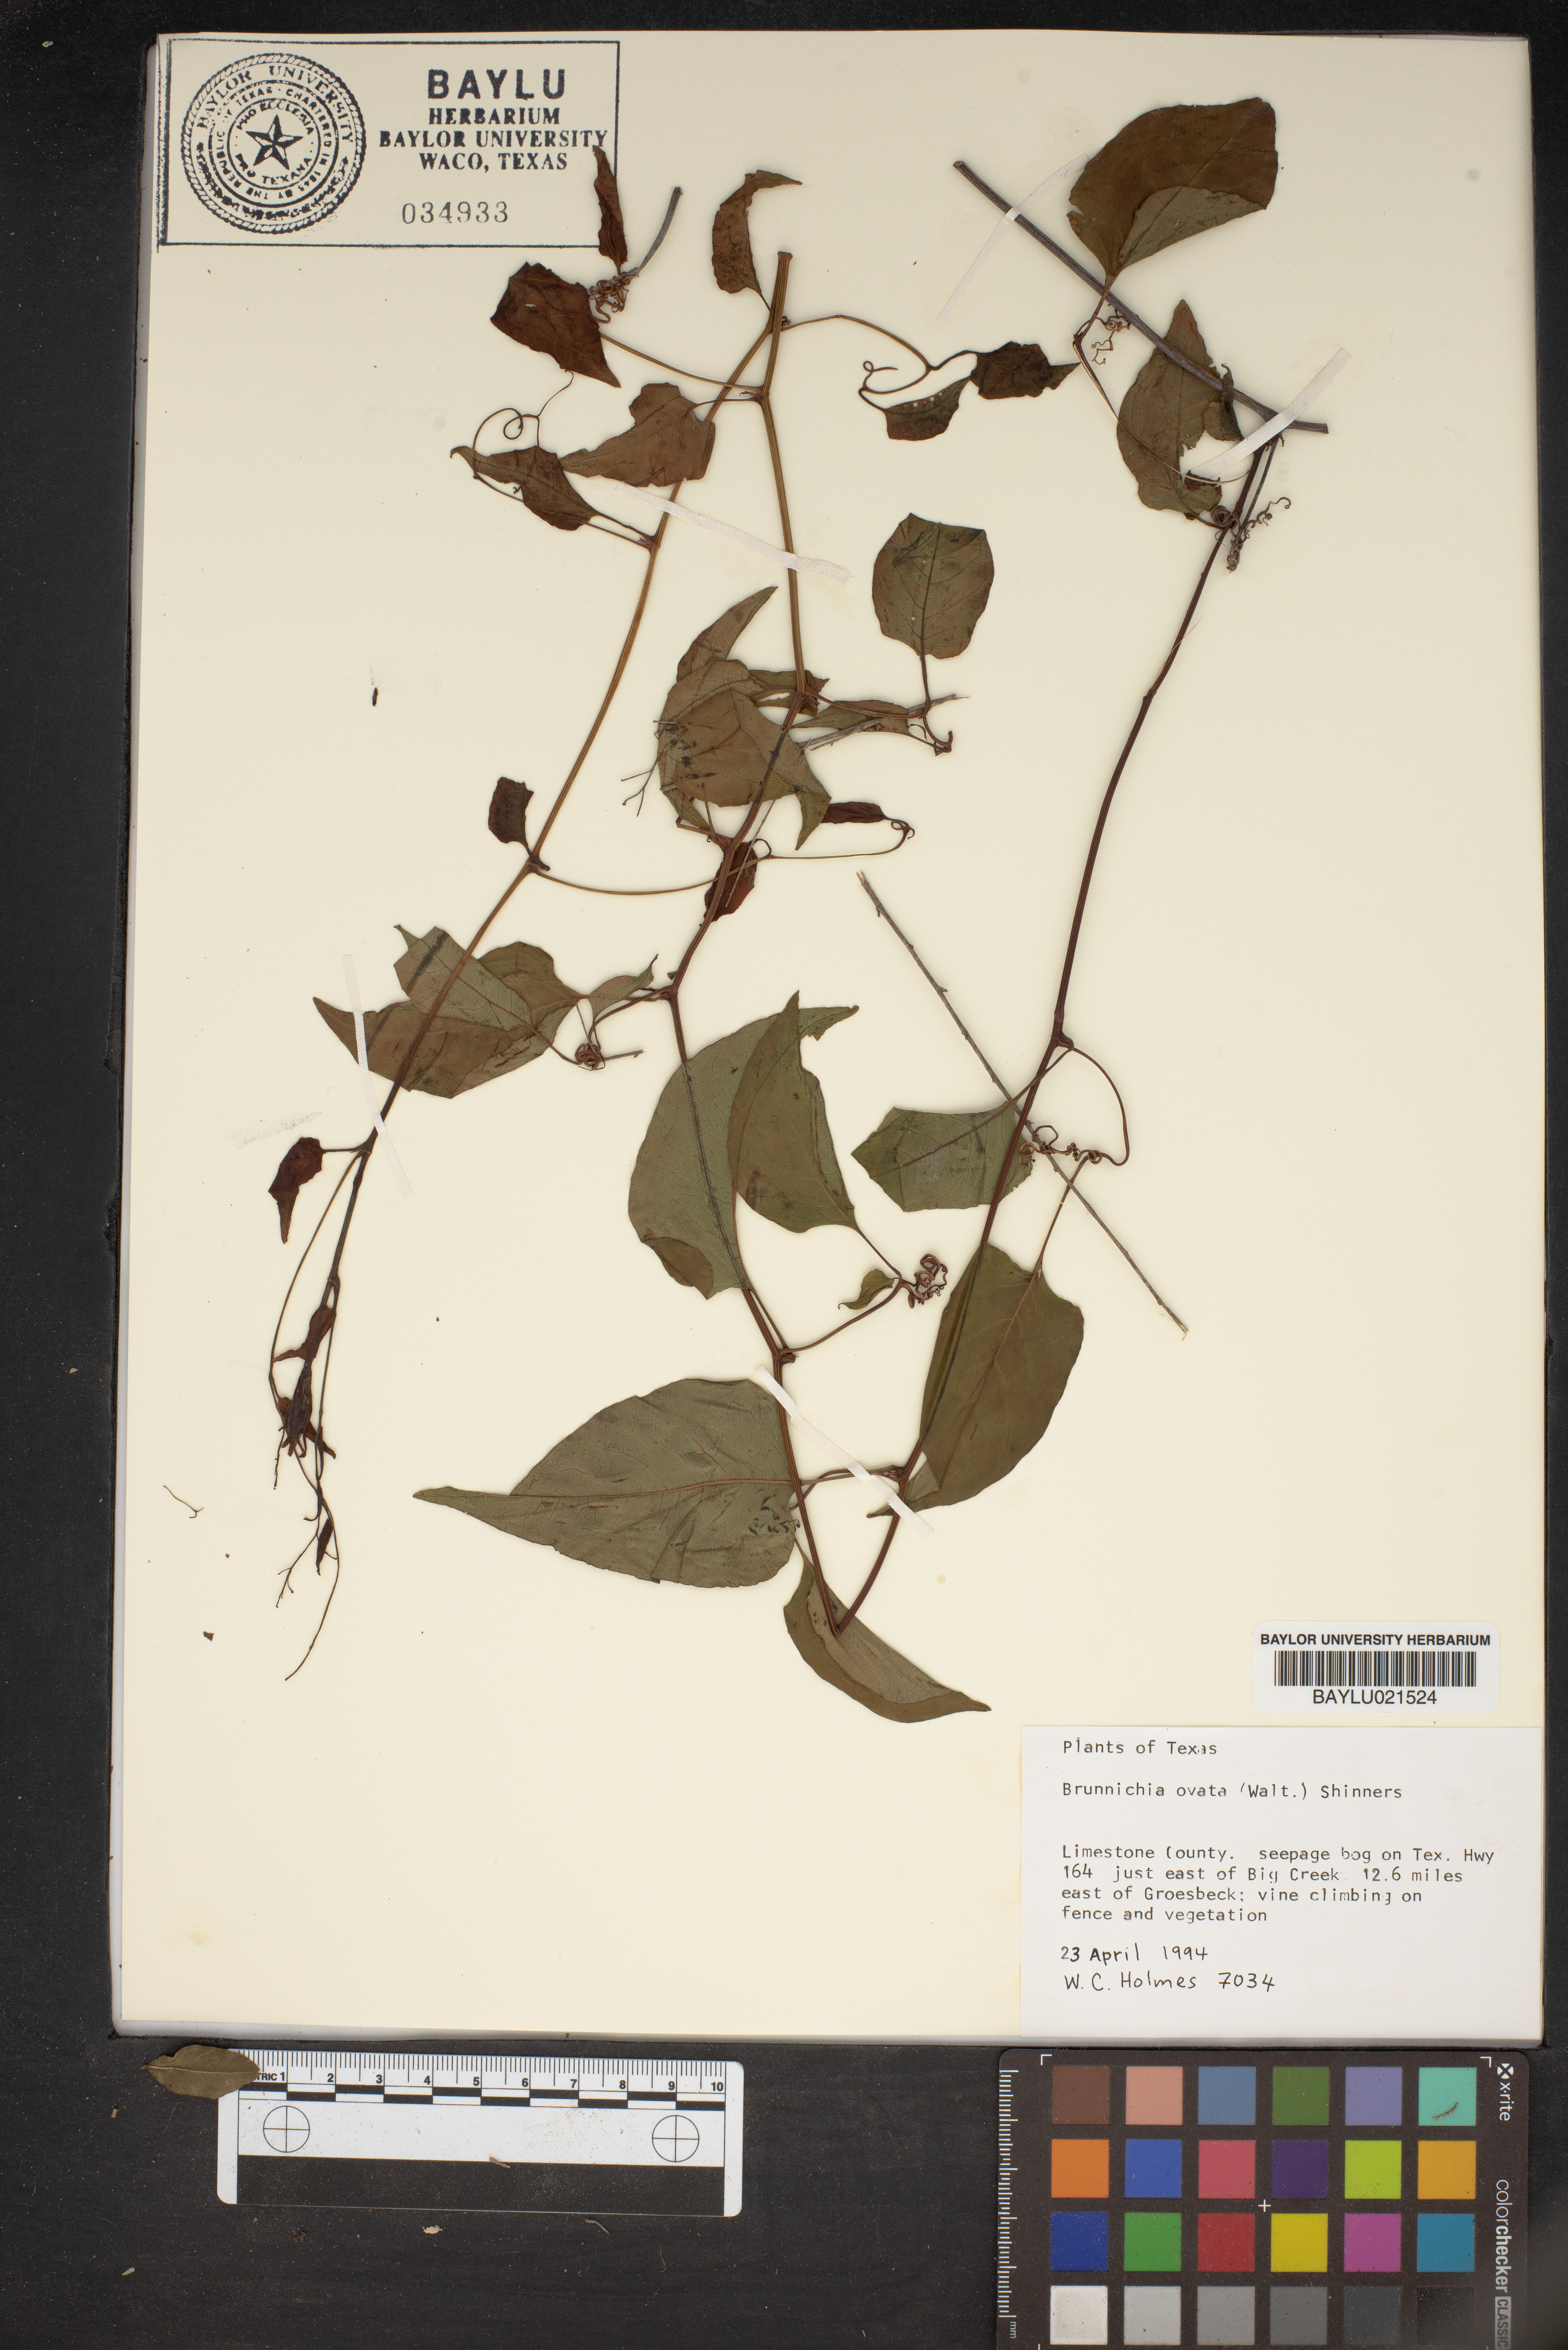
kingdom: Plantae
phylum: Tracheophyta
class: Magnoliopsida
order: Caryophyllales
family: Polygonaceae
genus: Brunnichia
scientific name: Brunnichia ovata
